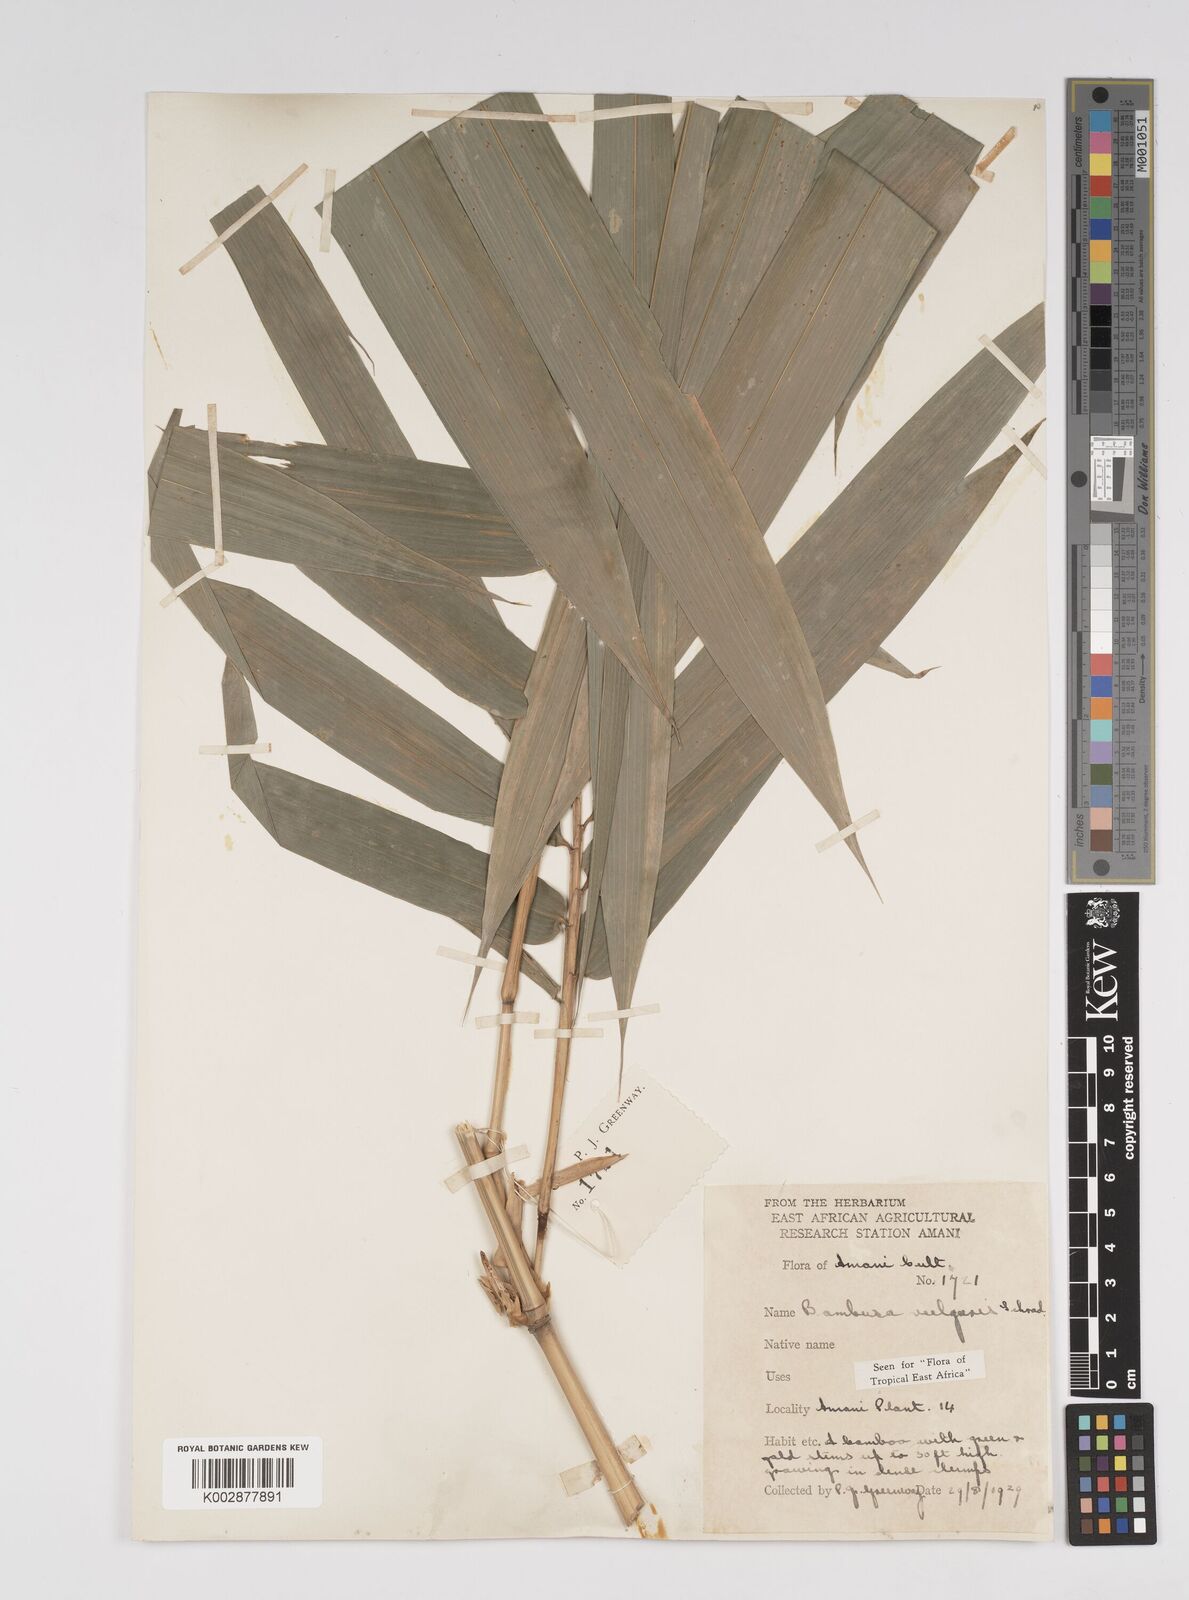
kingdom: Plantae
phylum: Tracheophyta
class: Liliopsida
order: Poales
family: Poaceae
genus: Bambusa
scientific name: Bambusa balcooa
